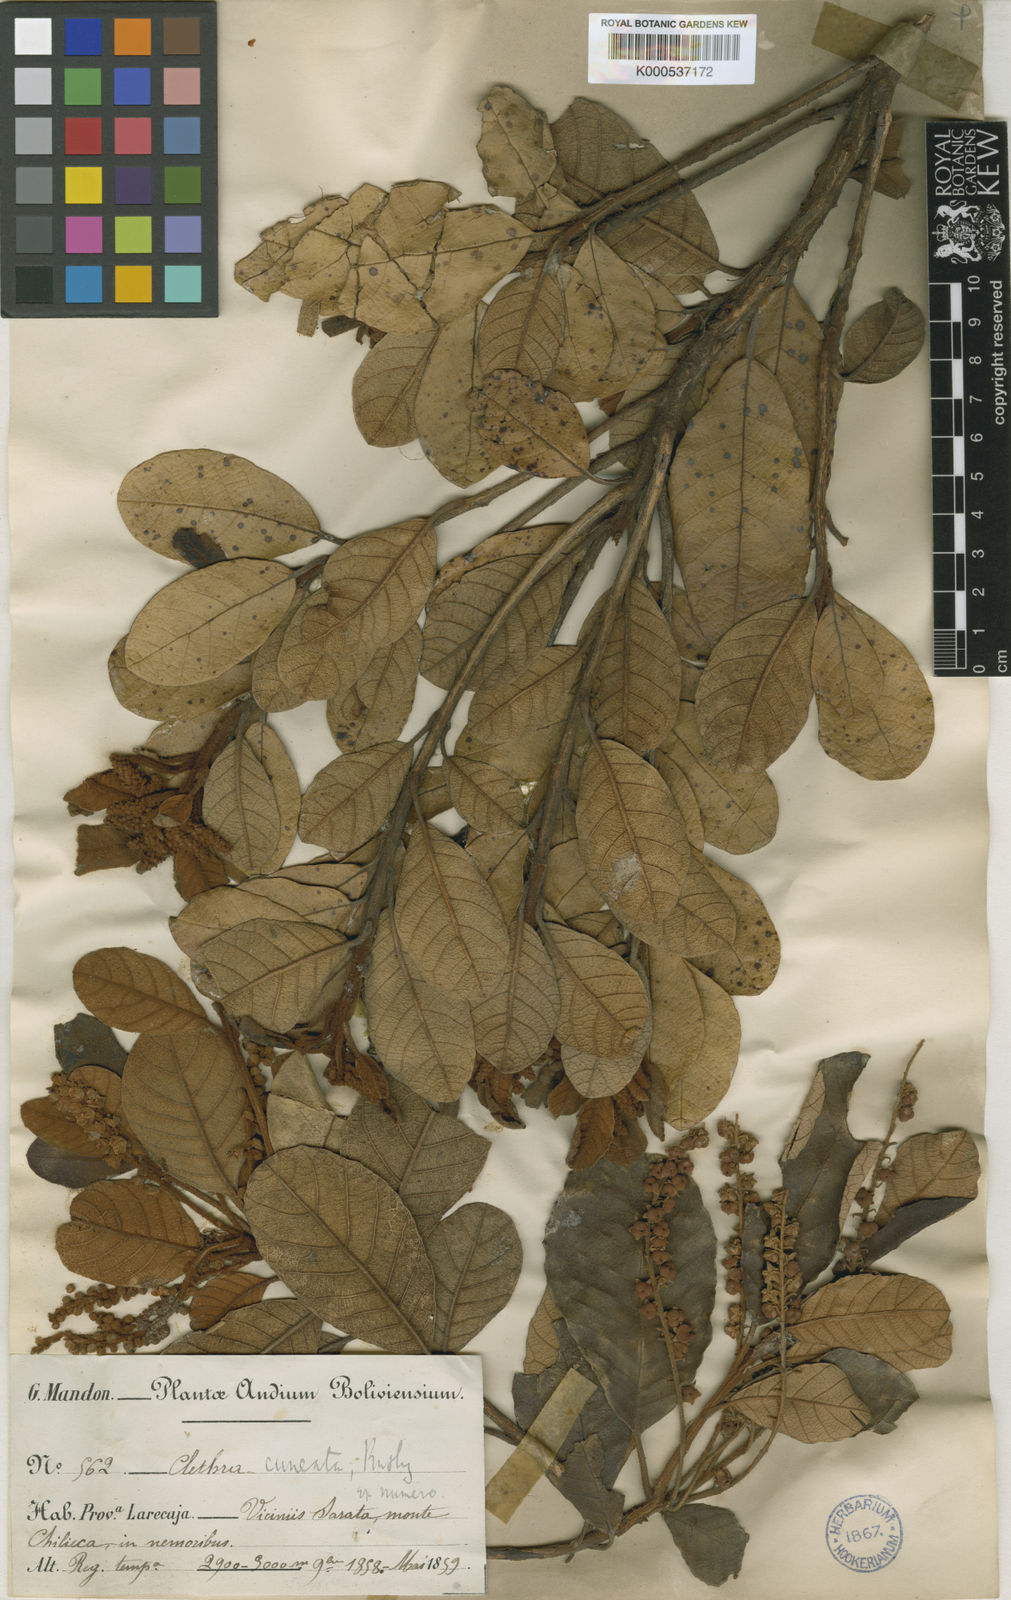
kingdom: Plantae
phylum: Tracheophyta
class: Magnoliopsida
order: Ericales
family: Clethraceae
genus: Clethra
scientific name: Clethra cuneata
